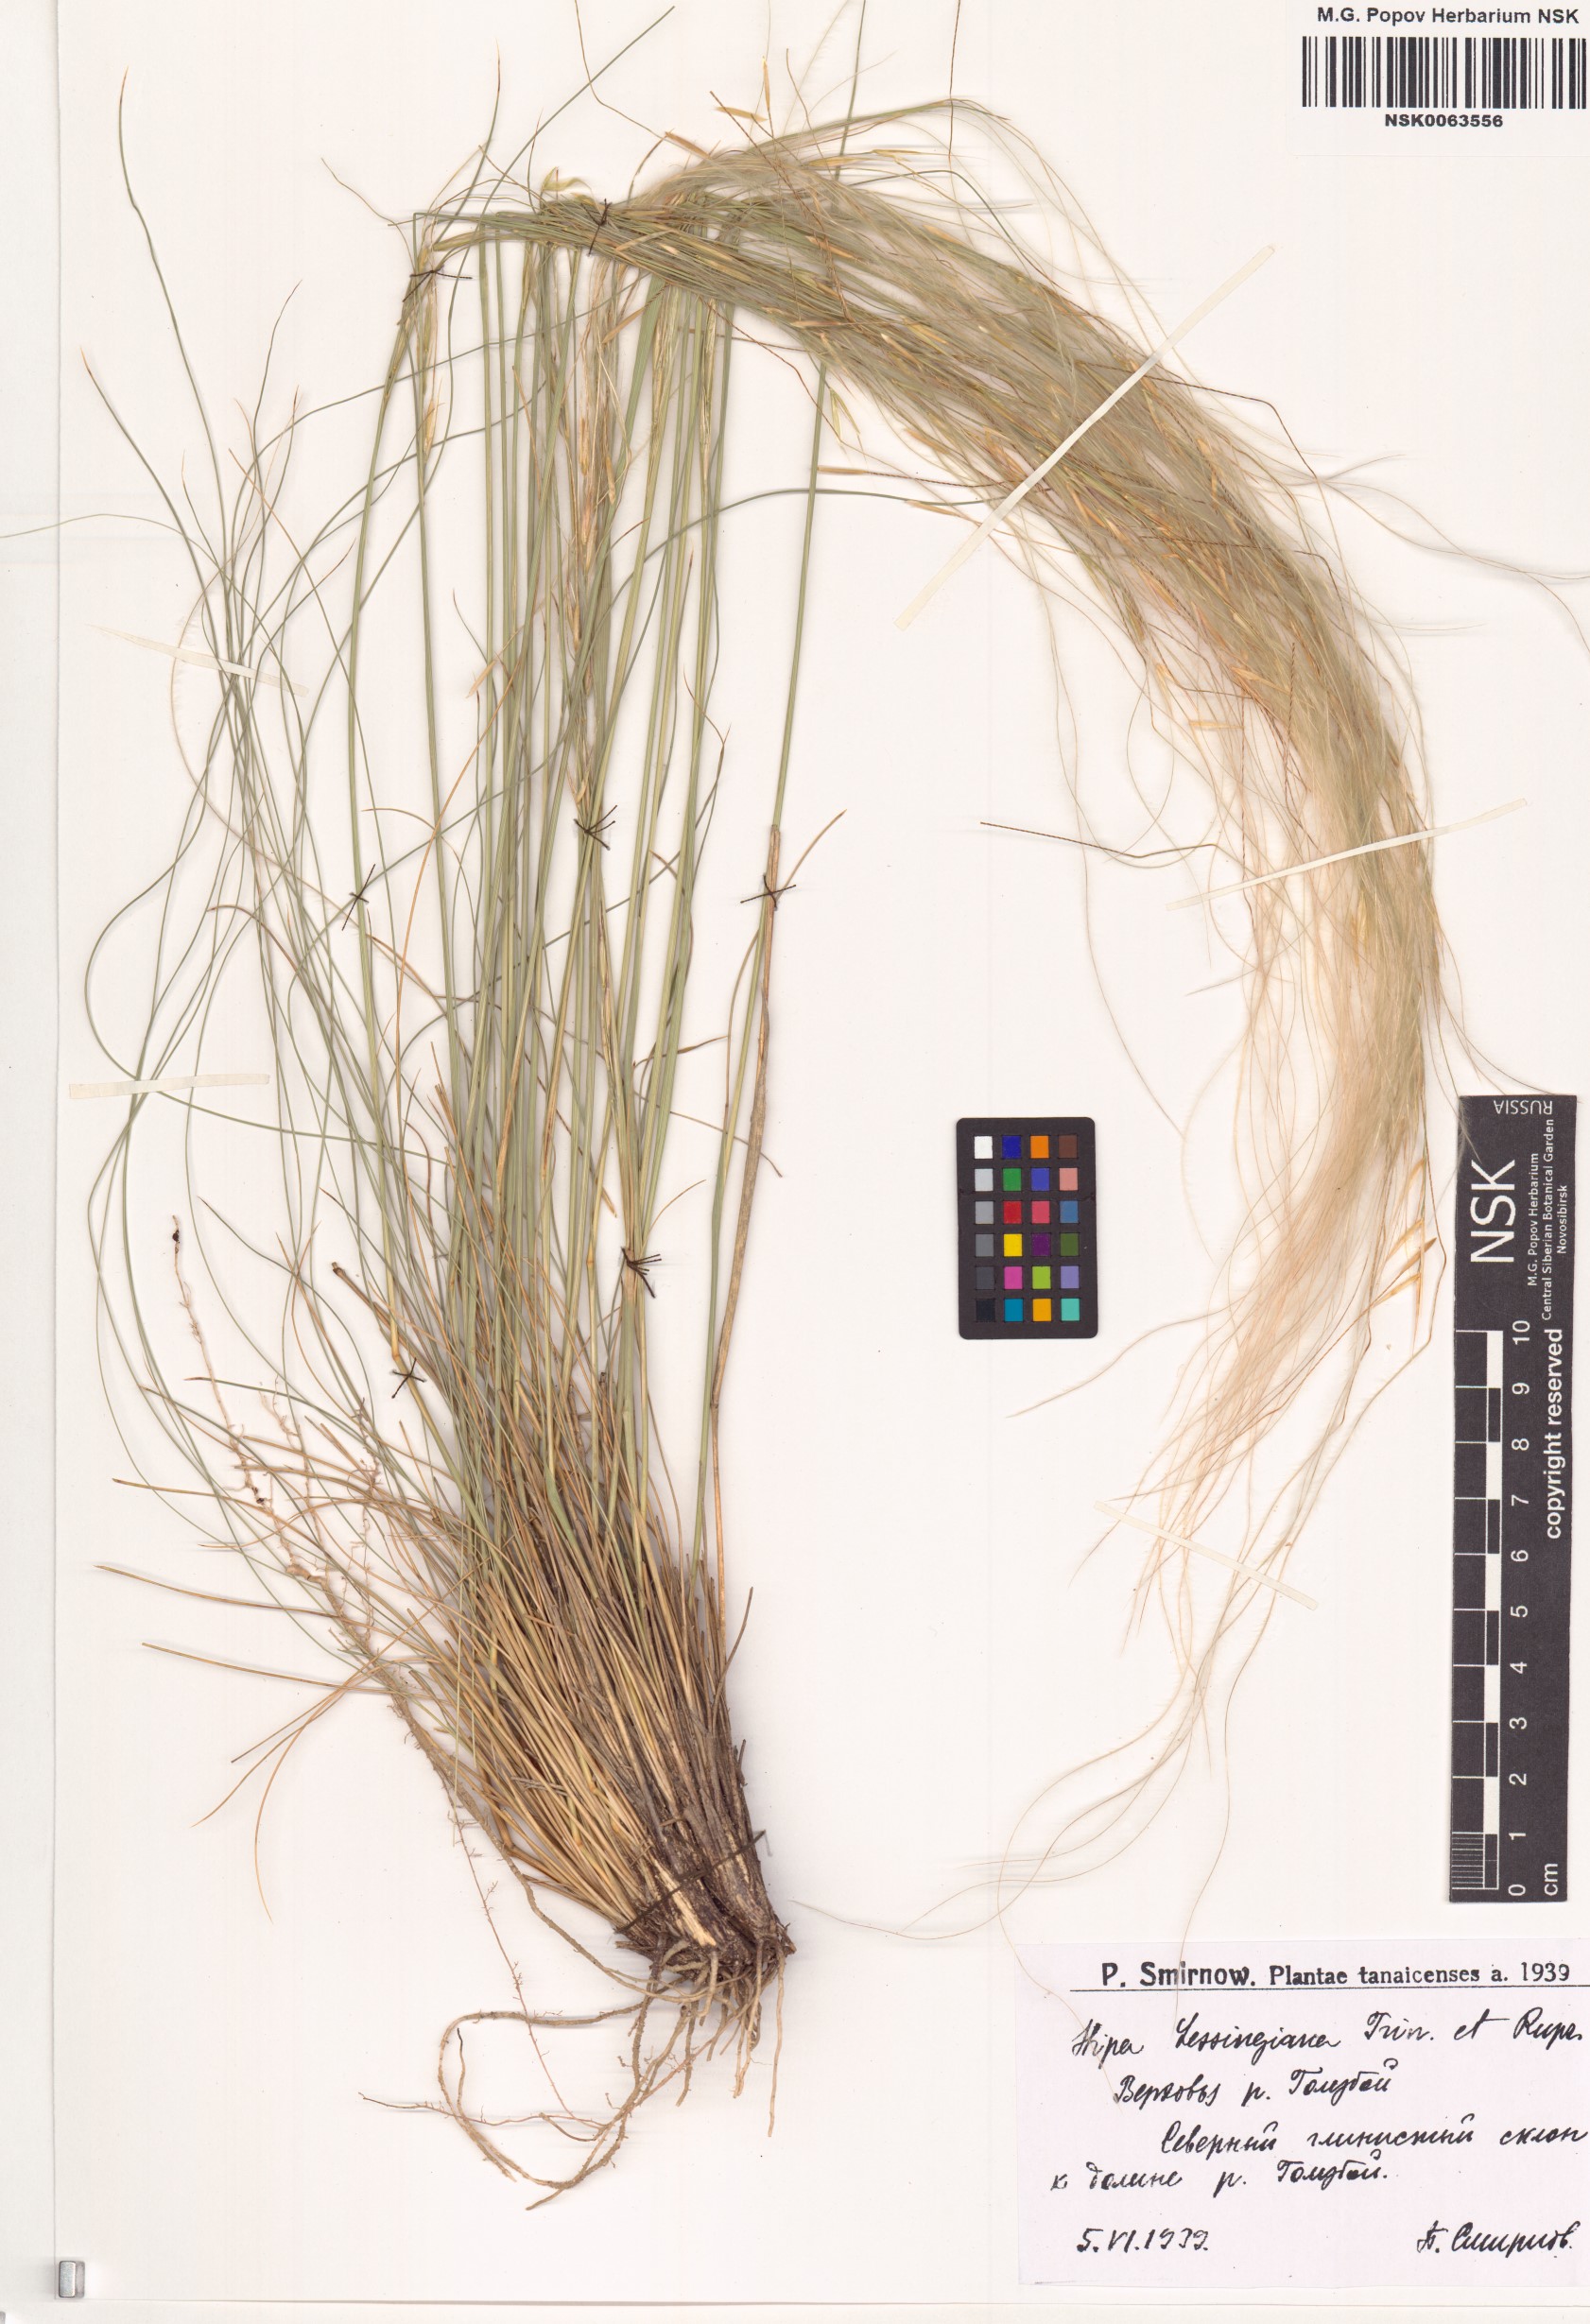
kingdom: Plantae
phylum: Tracheophyta
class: Liliopsida
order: Poales
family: Poaceae
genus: Stipa
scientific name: Stipa lessingiana
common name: Needle grass
